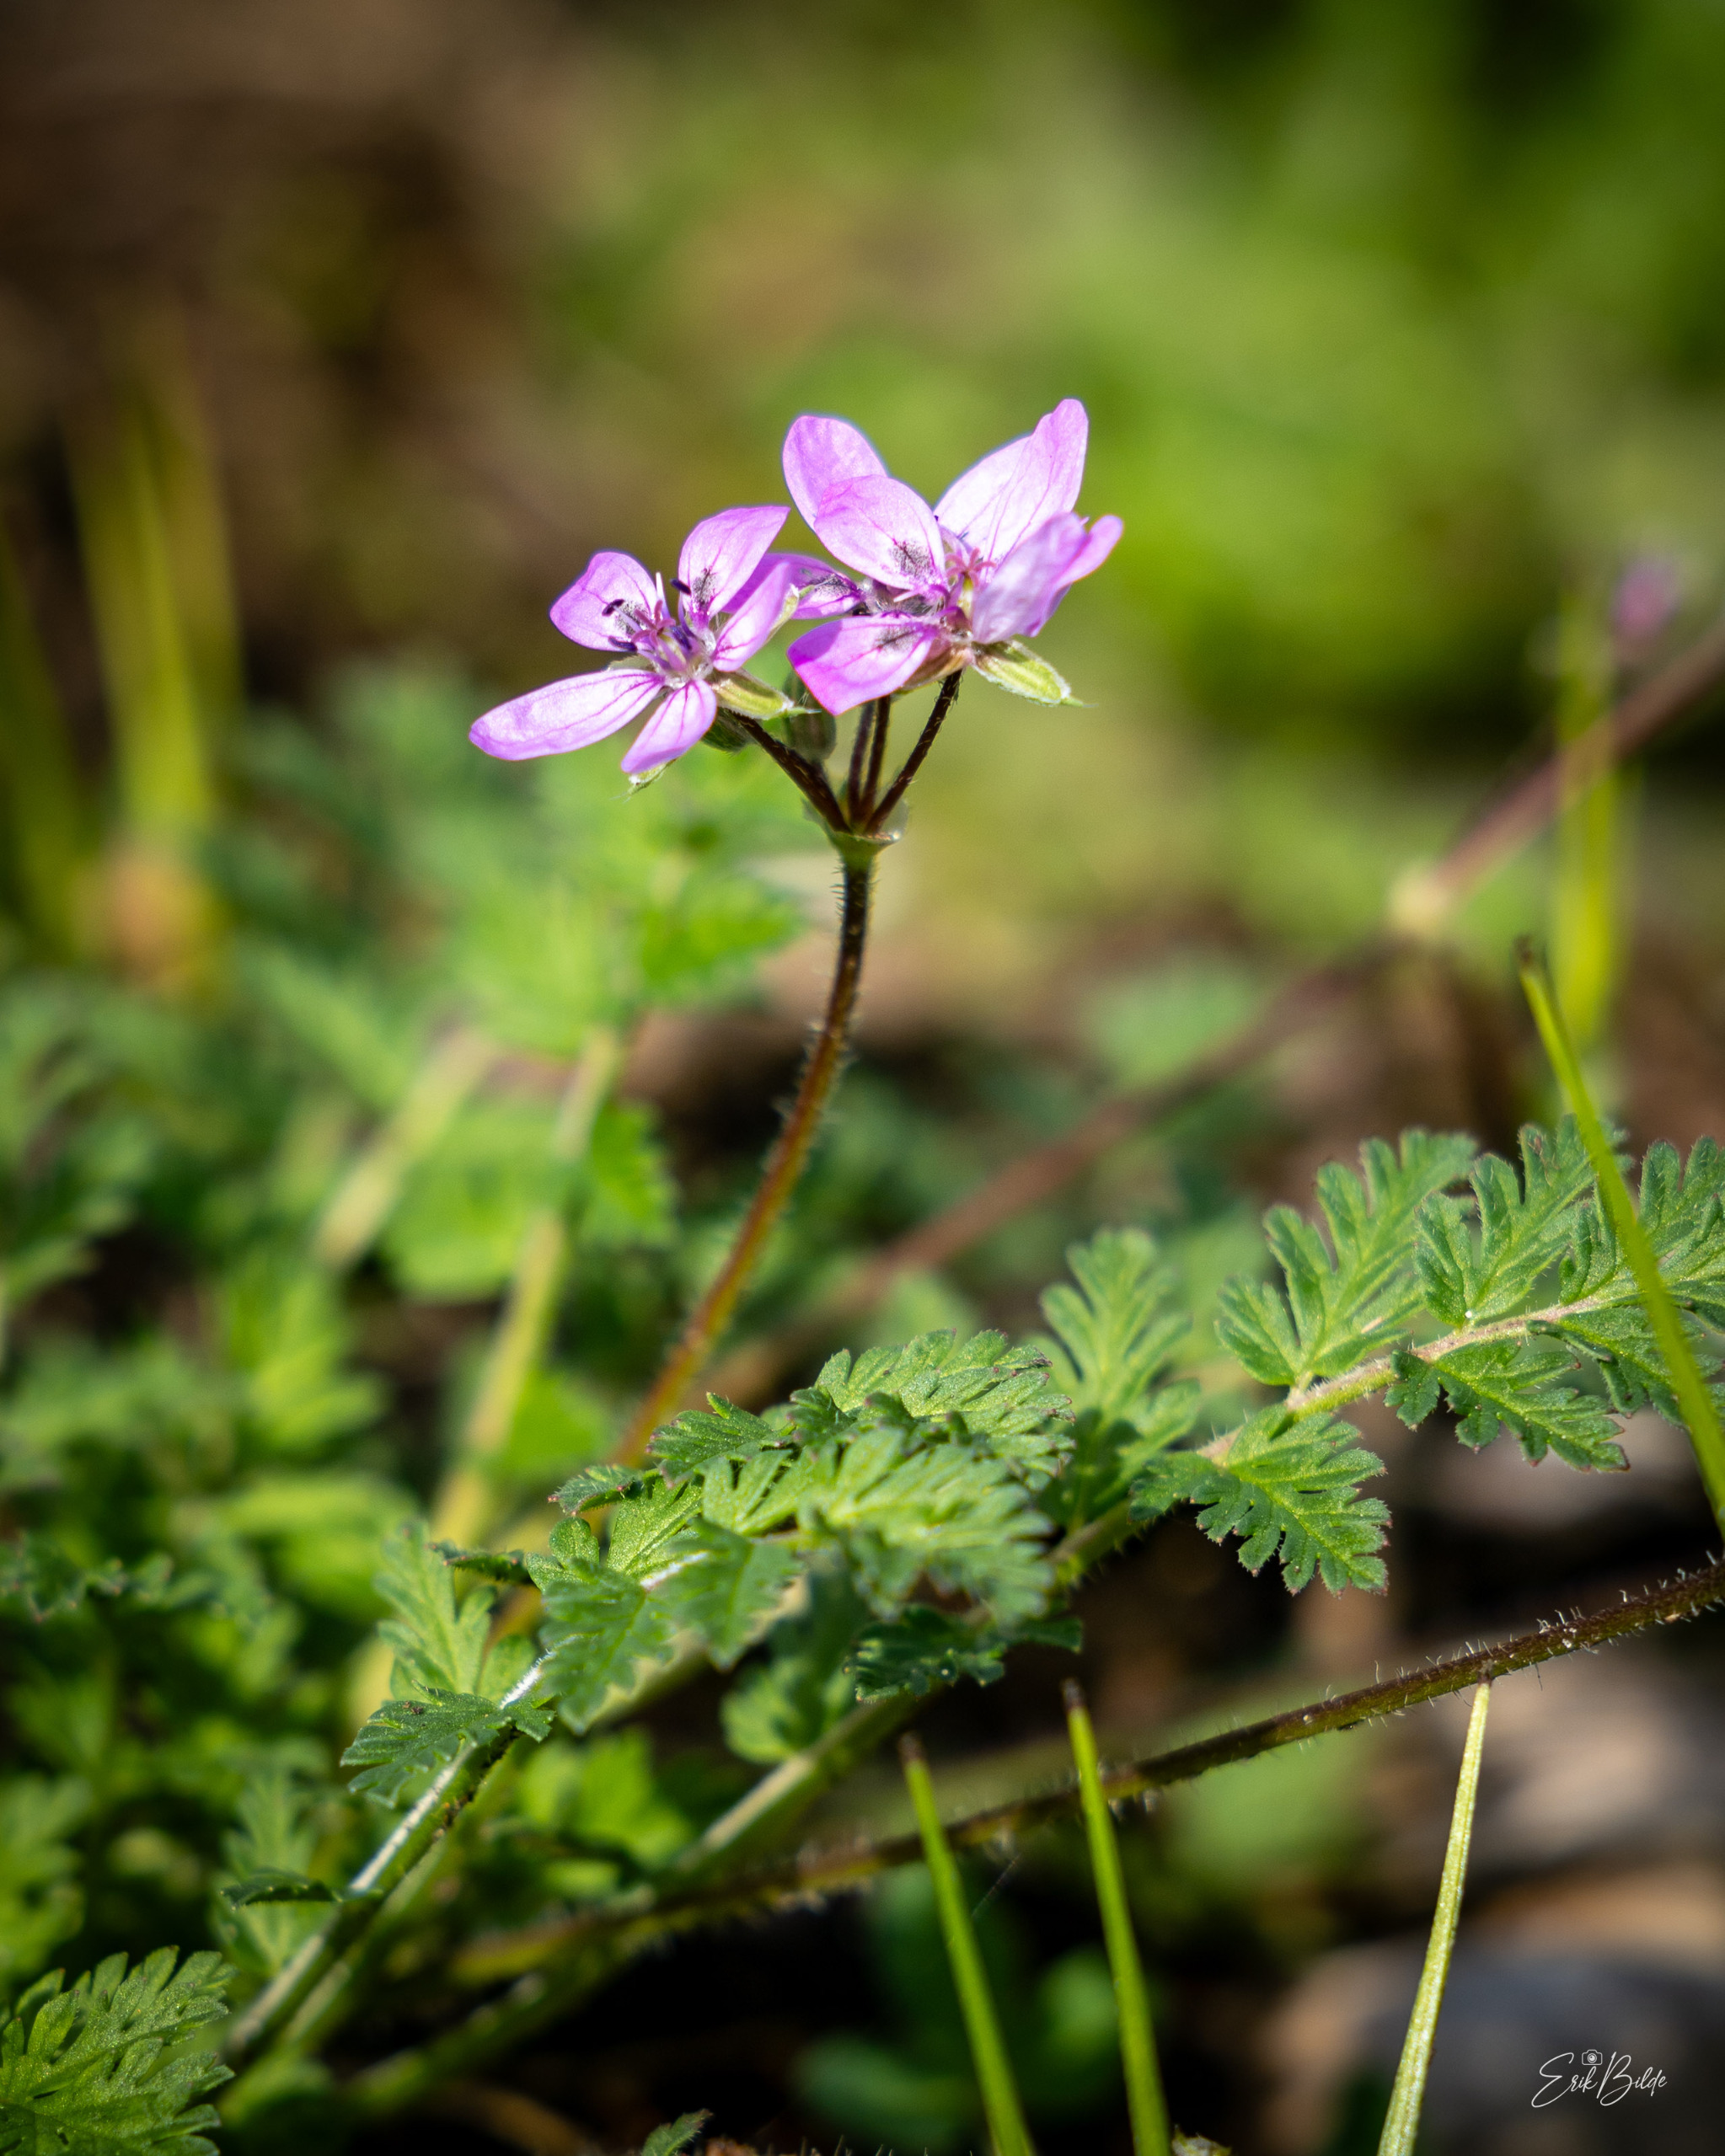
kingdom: Plantae
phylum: Tracheophyta
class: Magnoliopsida
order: Geraniales
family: Geraniaceae
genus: Erodium
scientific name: Erodium cicutarium
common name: Hejrenæb
